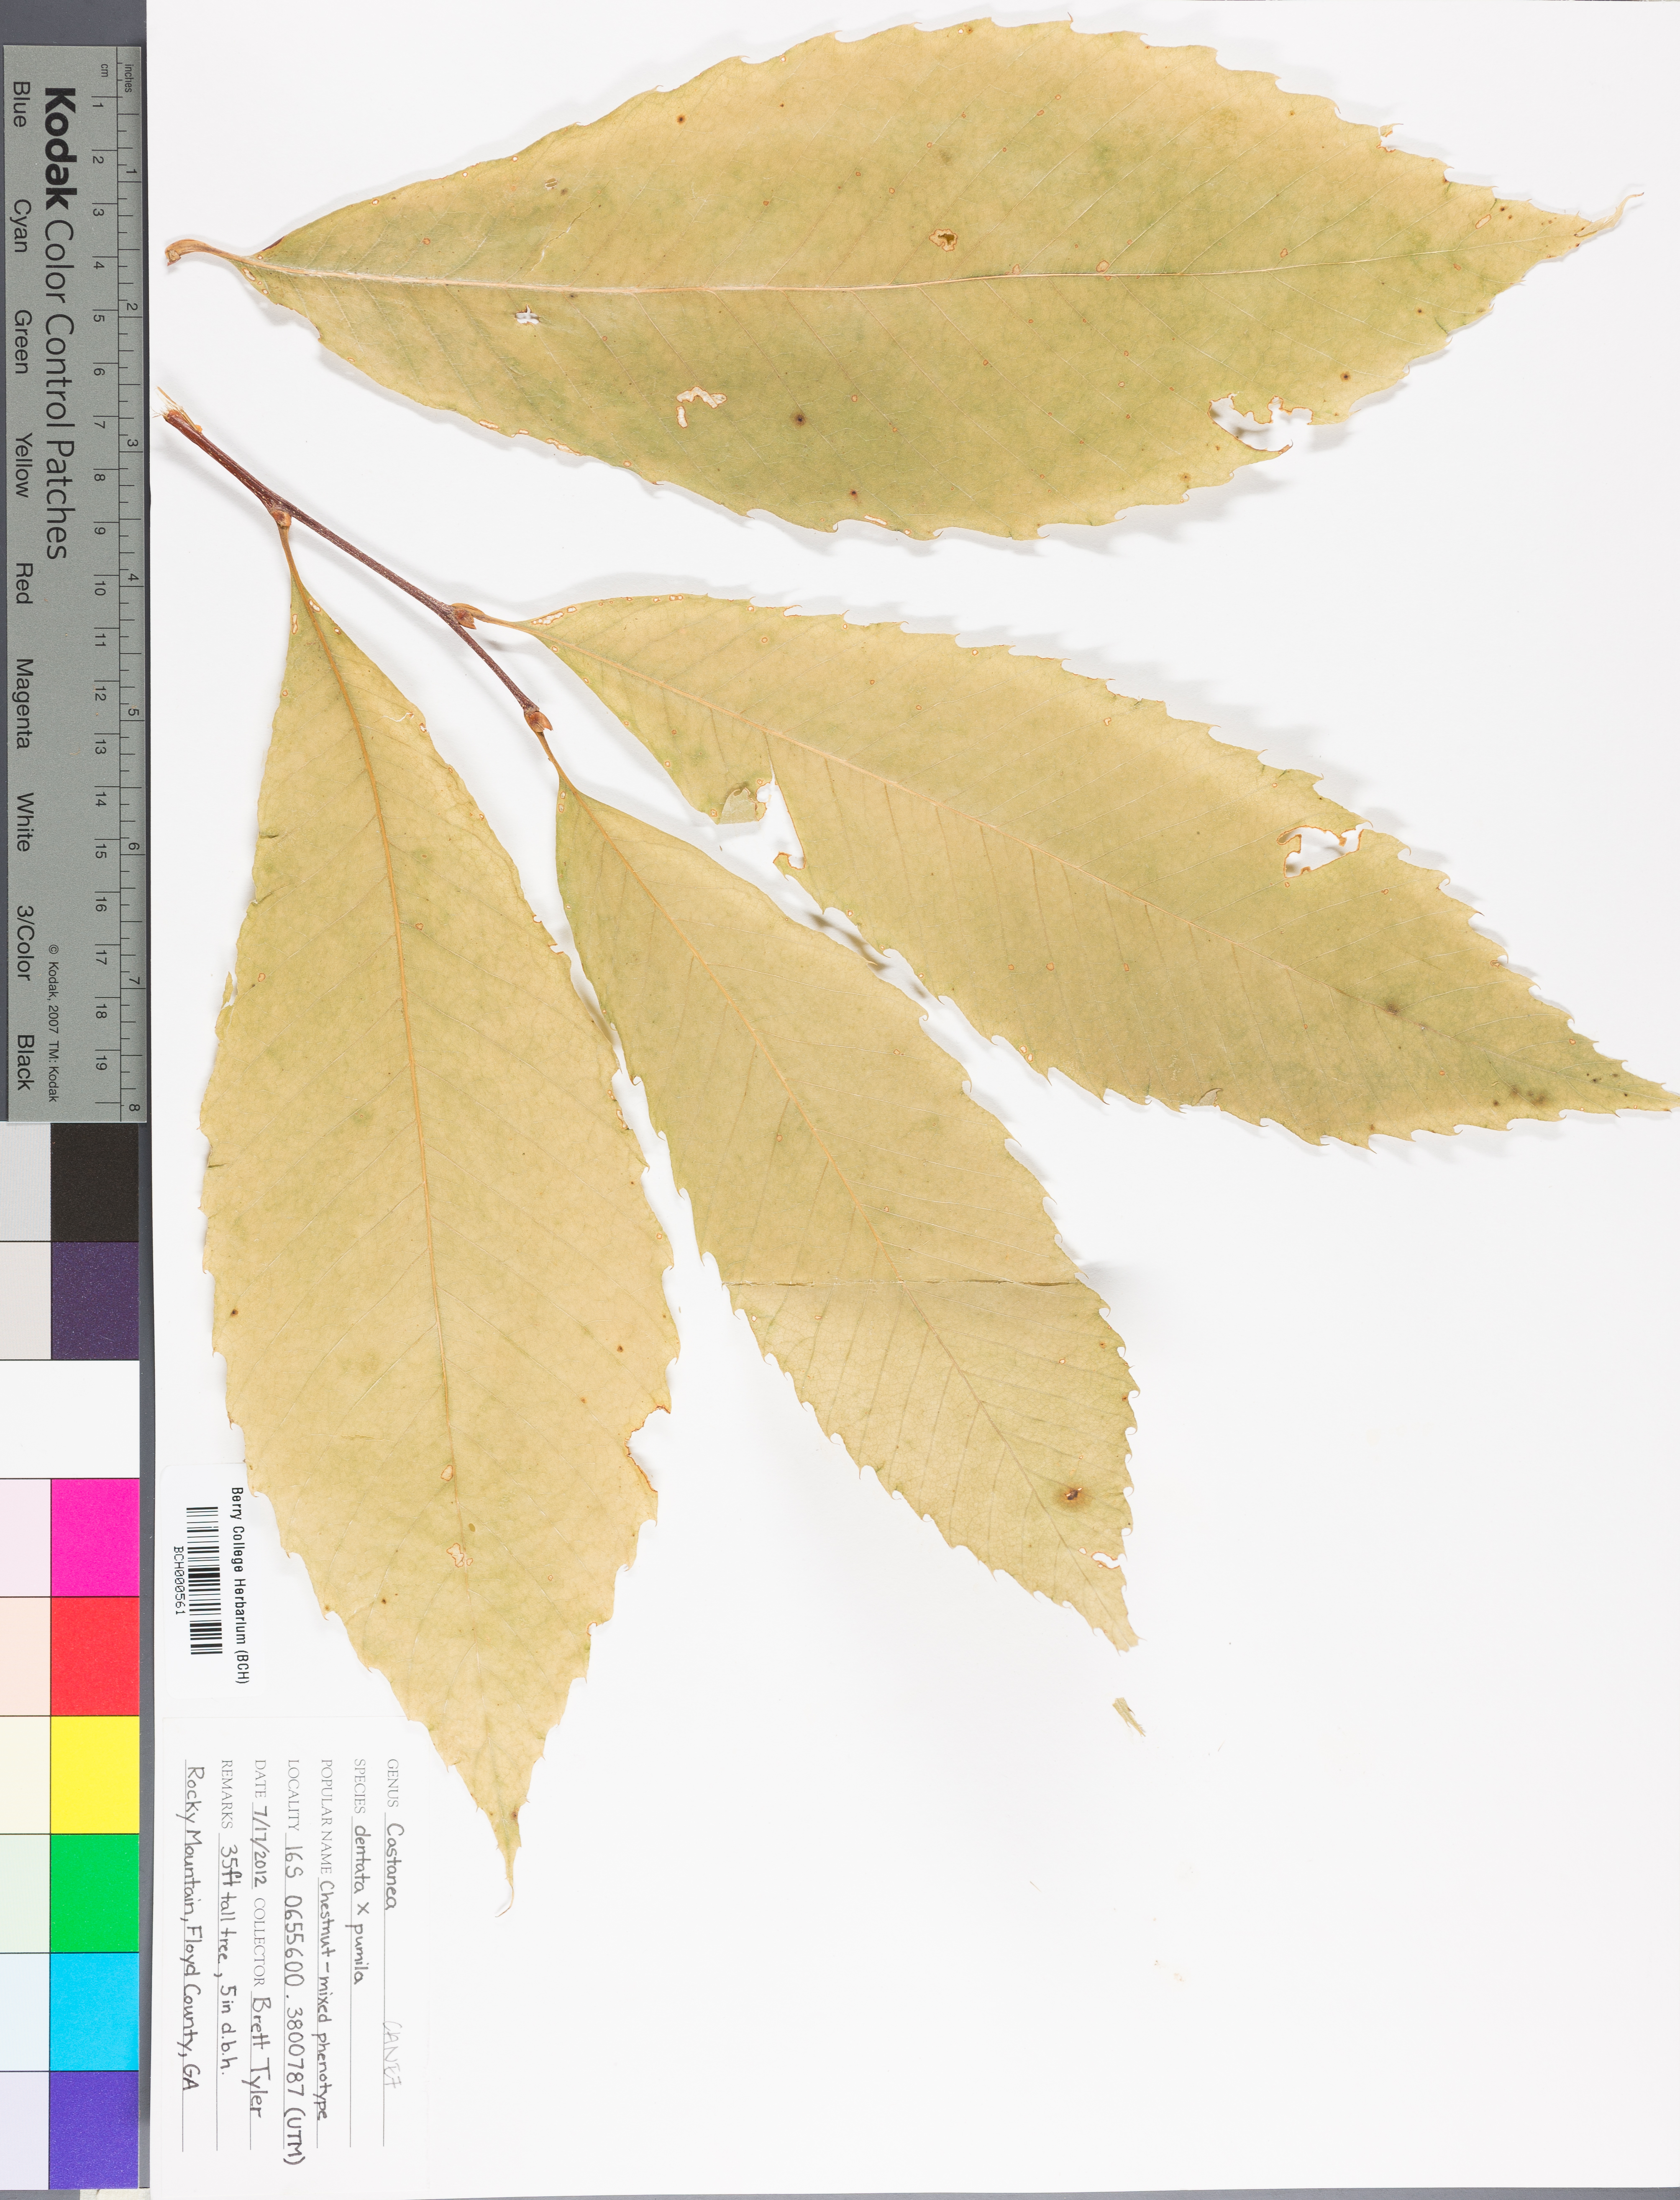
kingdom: Plantae
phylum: Tracheophyta
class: Magnoliopsida
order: Fagales
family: Fagaceae
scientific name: Fagaceae
